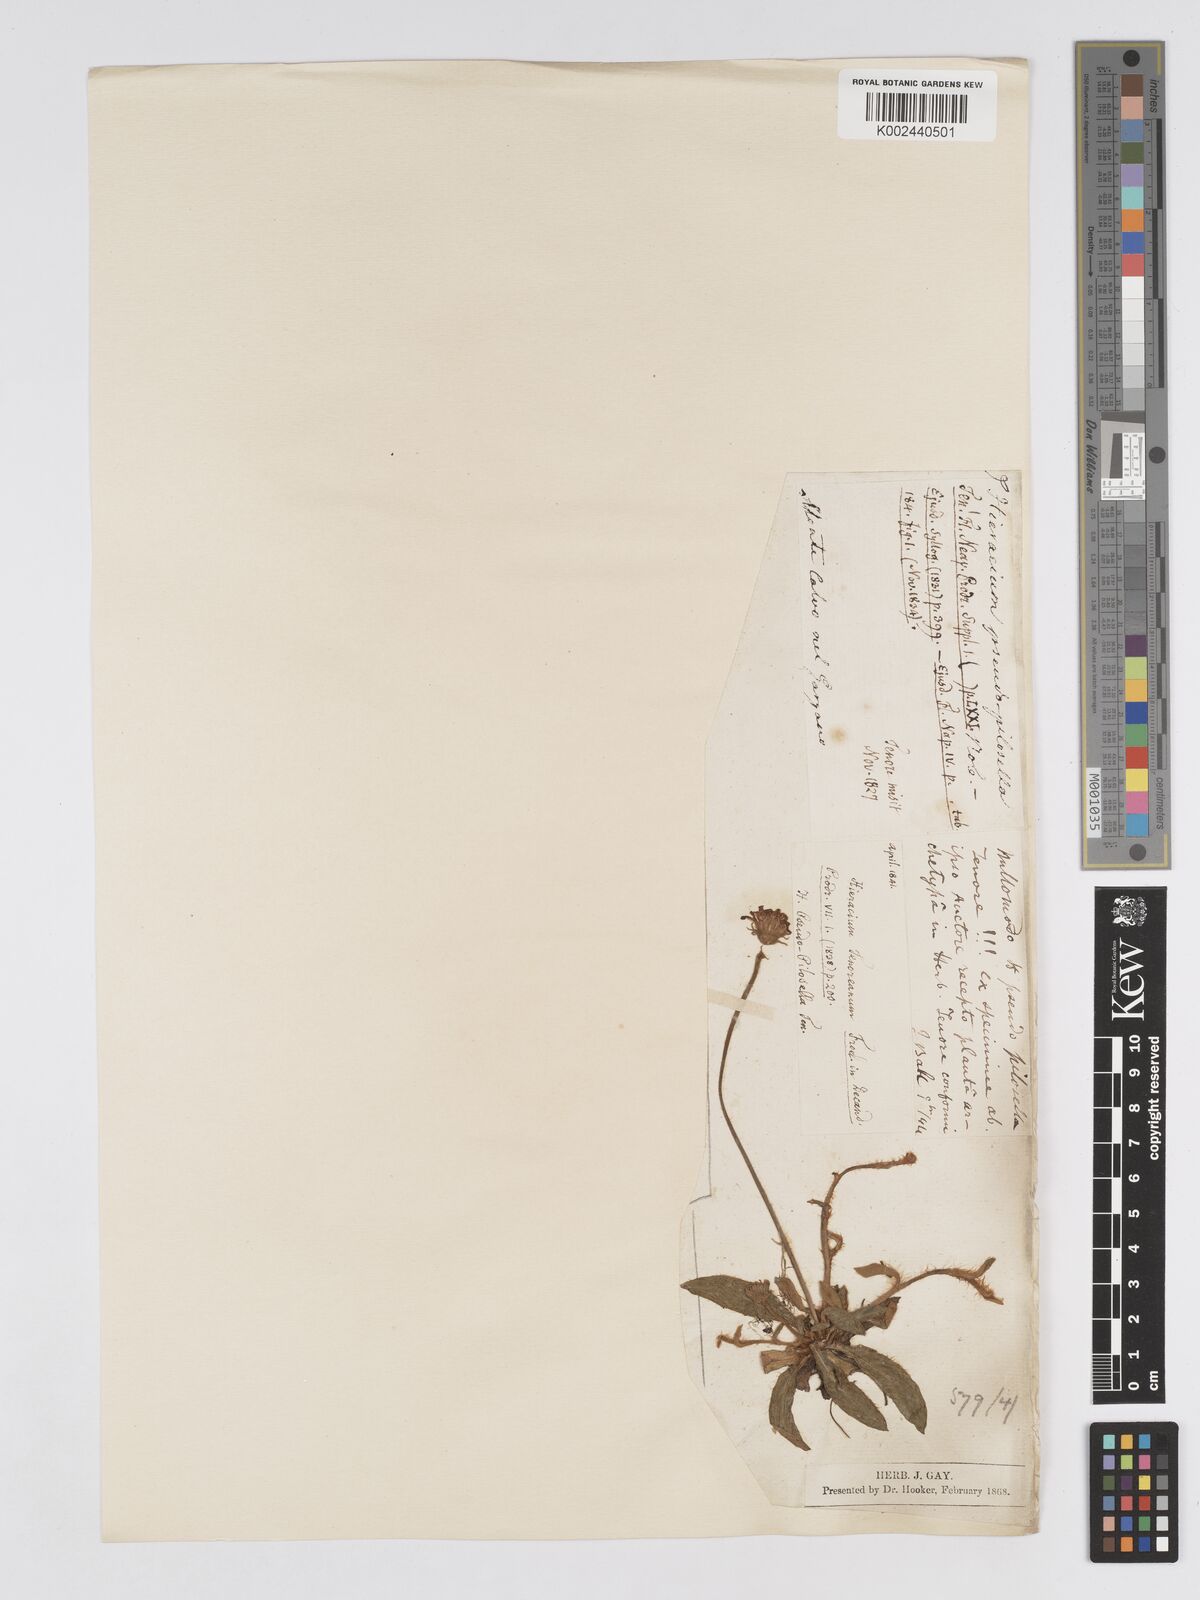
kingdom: Plantae
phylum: Tracheophyta
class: Magnoliopsida
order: Asterales
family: Asteraceae
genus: Pilosella
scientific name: Pilosella pseudopilosella
